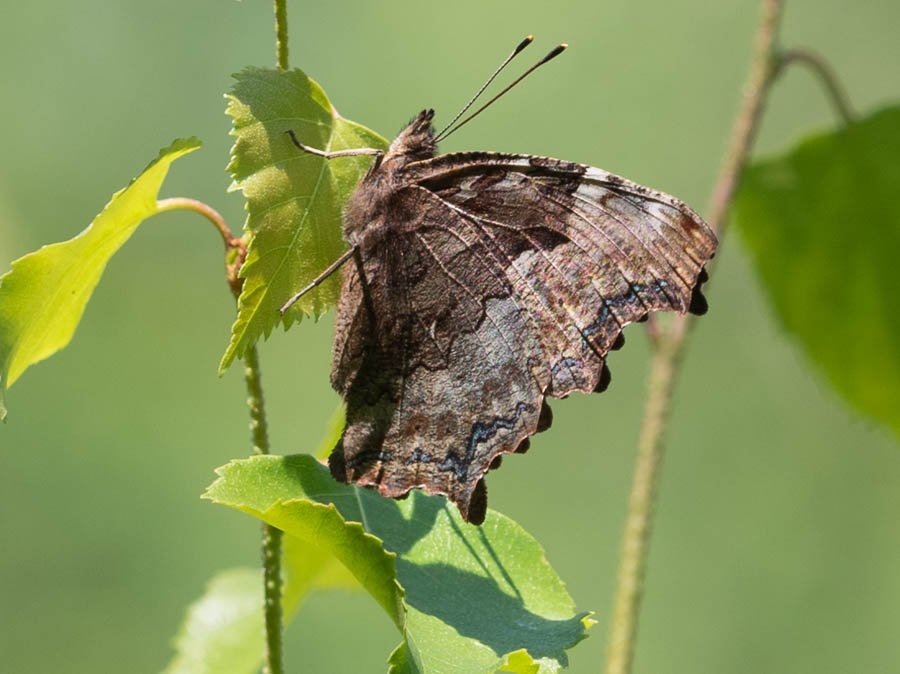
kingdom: Animalia
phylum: Arthropoda
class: Insecta
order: Lepidoptera
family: Nymphalidae
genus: Polygonia
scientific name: Polygonia vaualbum
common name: Compton Tortoiseshell
